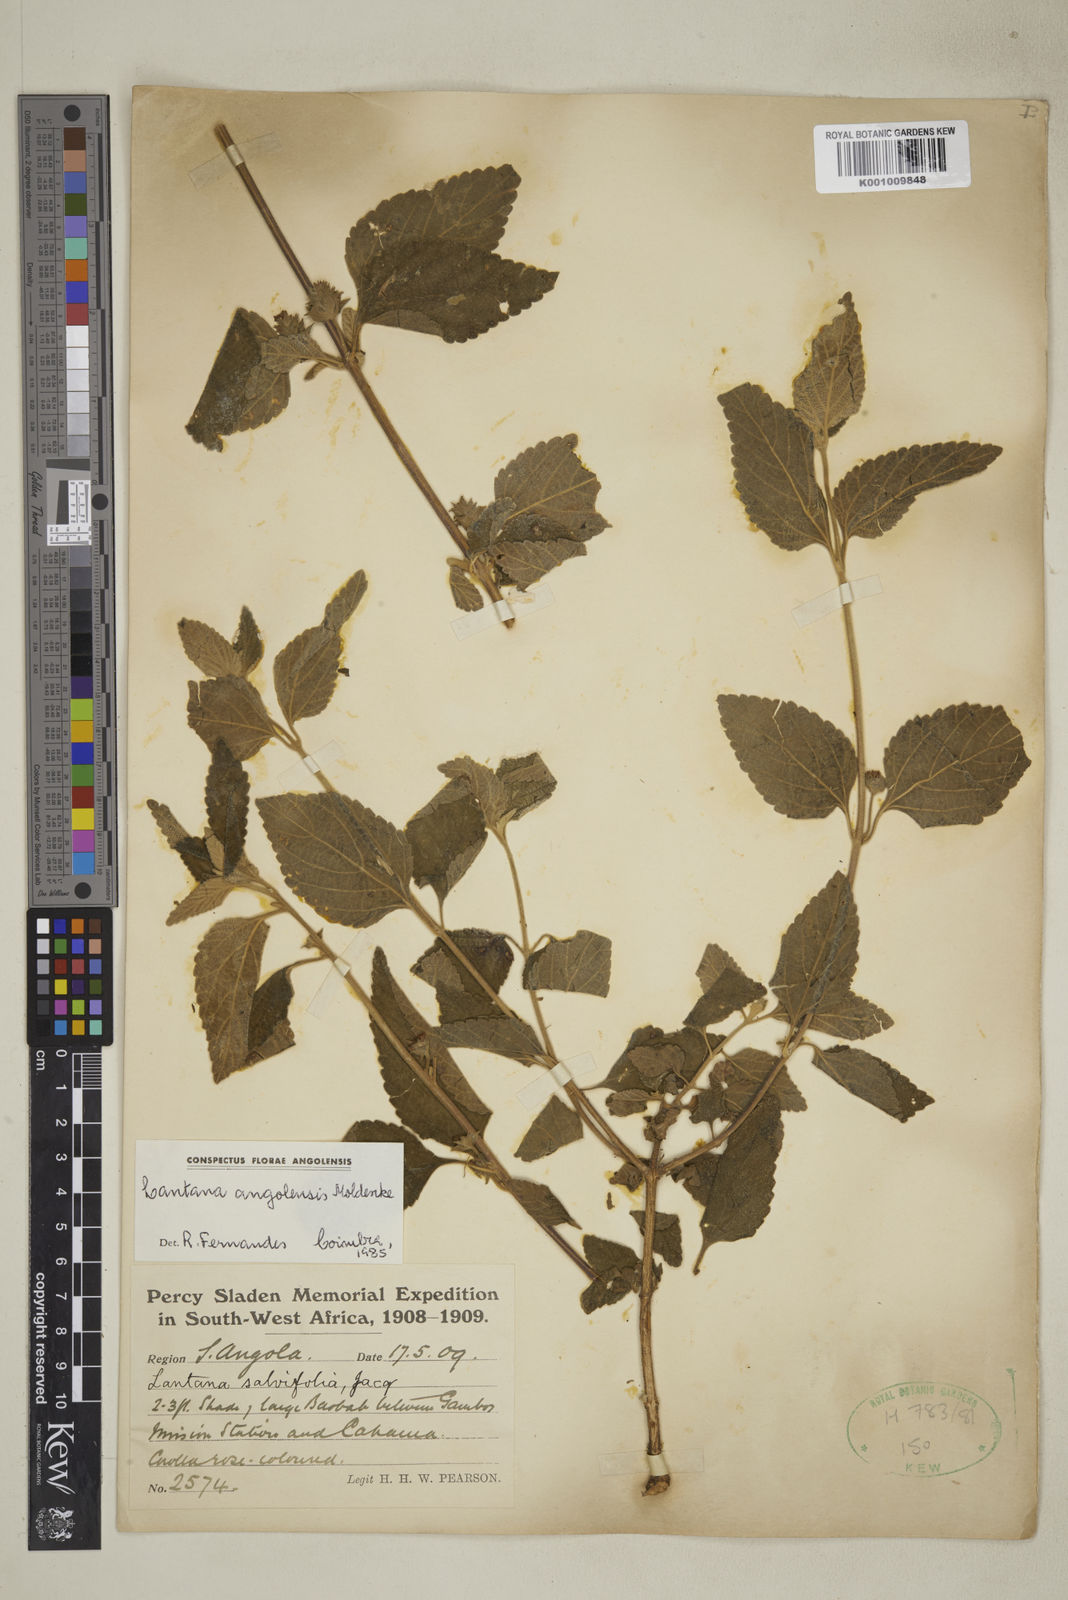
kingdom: Plantae
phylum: Tracheophyta
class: Magnoliopsida
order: Lamiales
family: Verbenaceae
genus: Lantana
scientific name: Lantana angolensis
